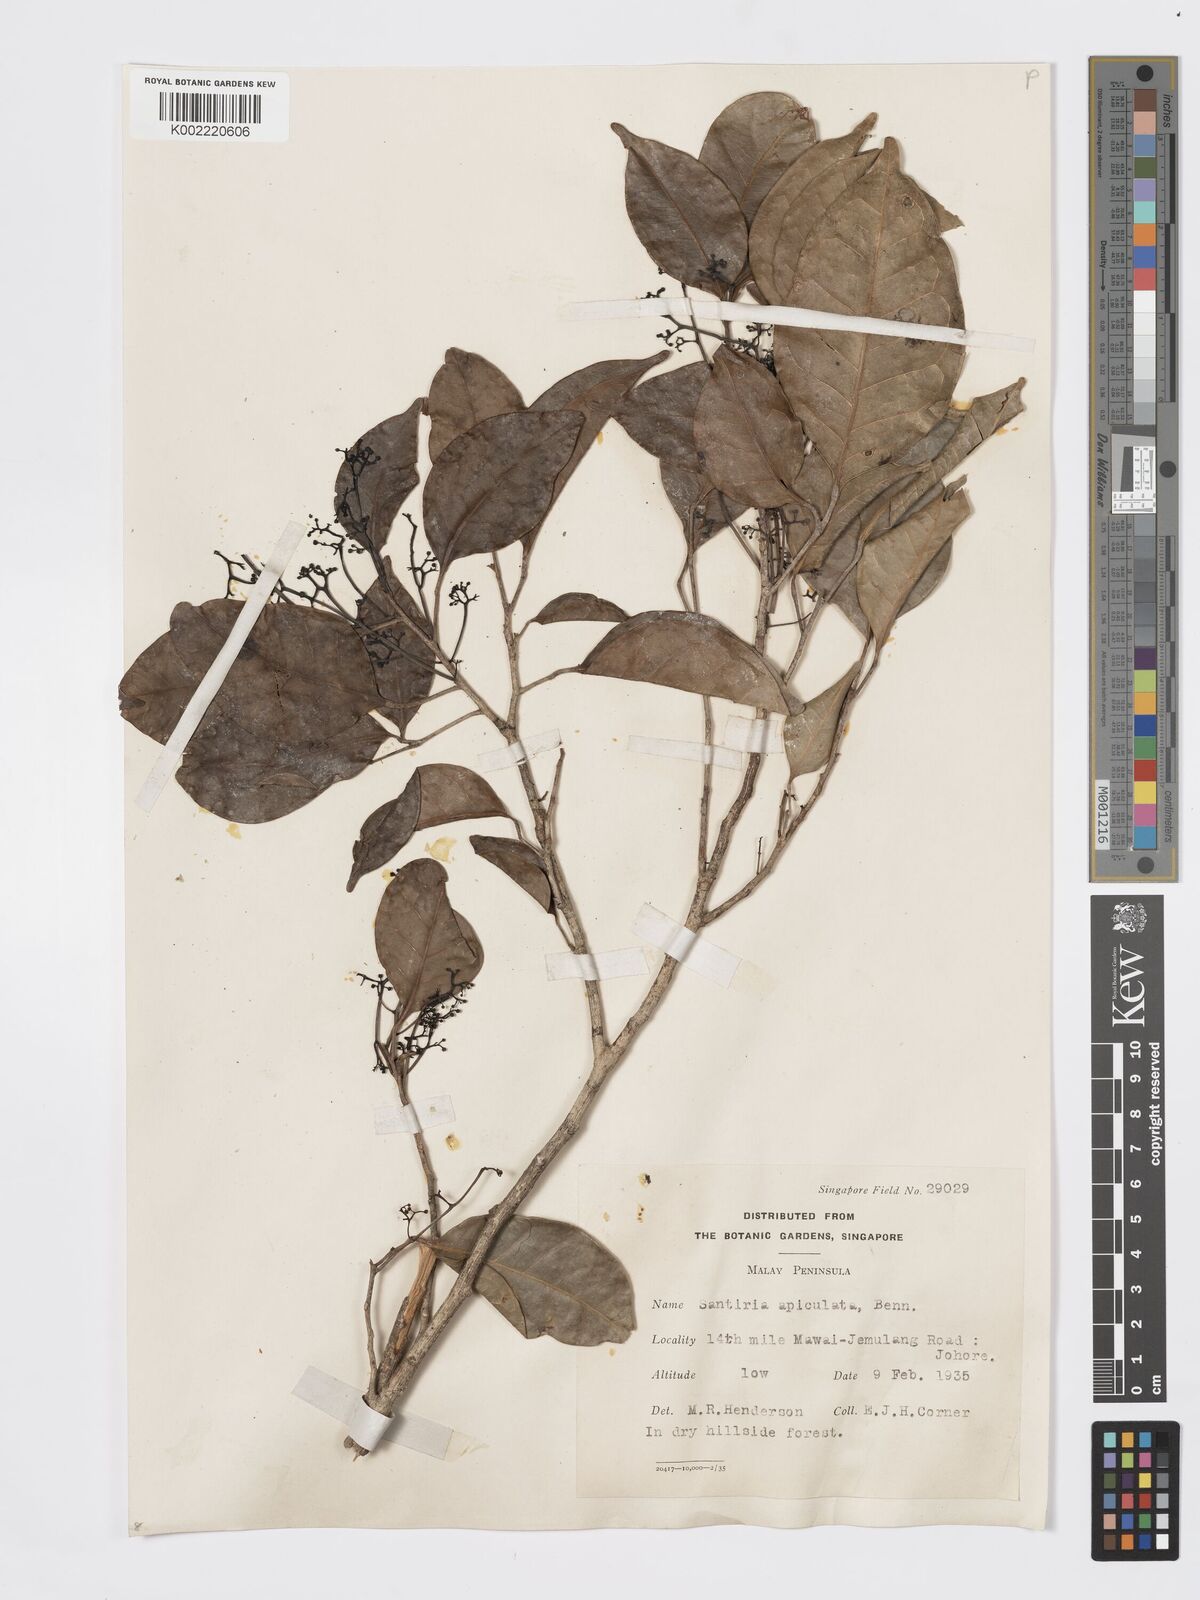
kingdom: Plantae
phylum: Tracheophyta
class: Magnoliopsida
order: Sapindales
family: Burseraceae
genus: Santiria
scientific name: Santiria apiculata
